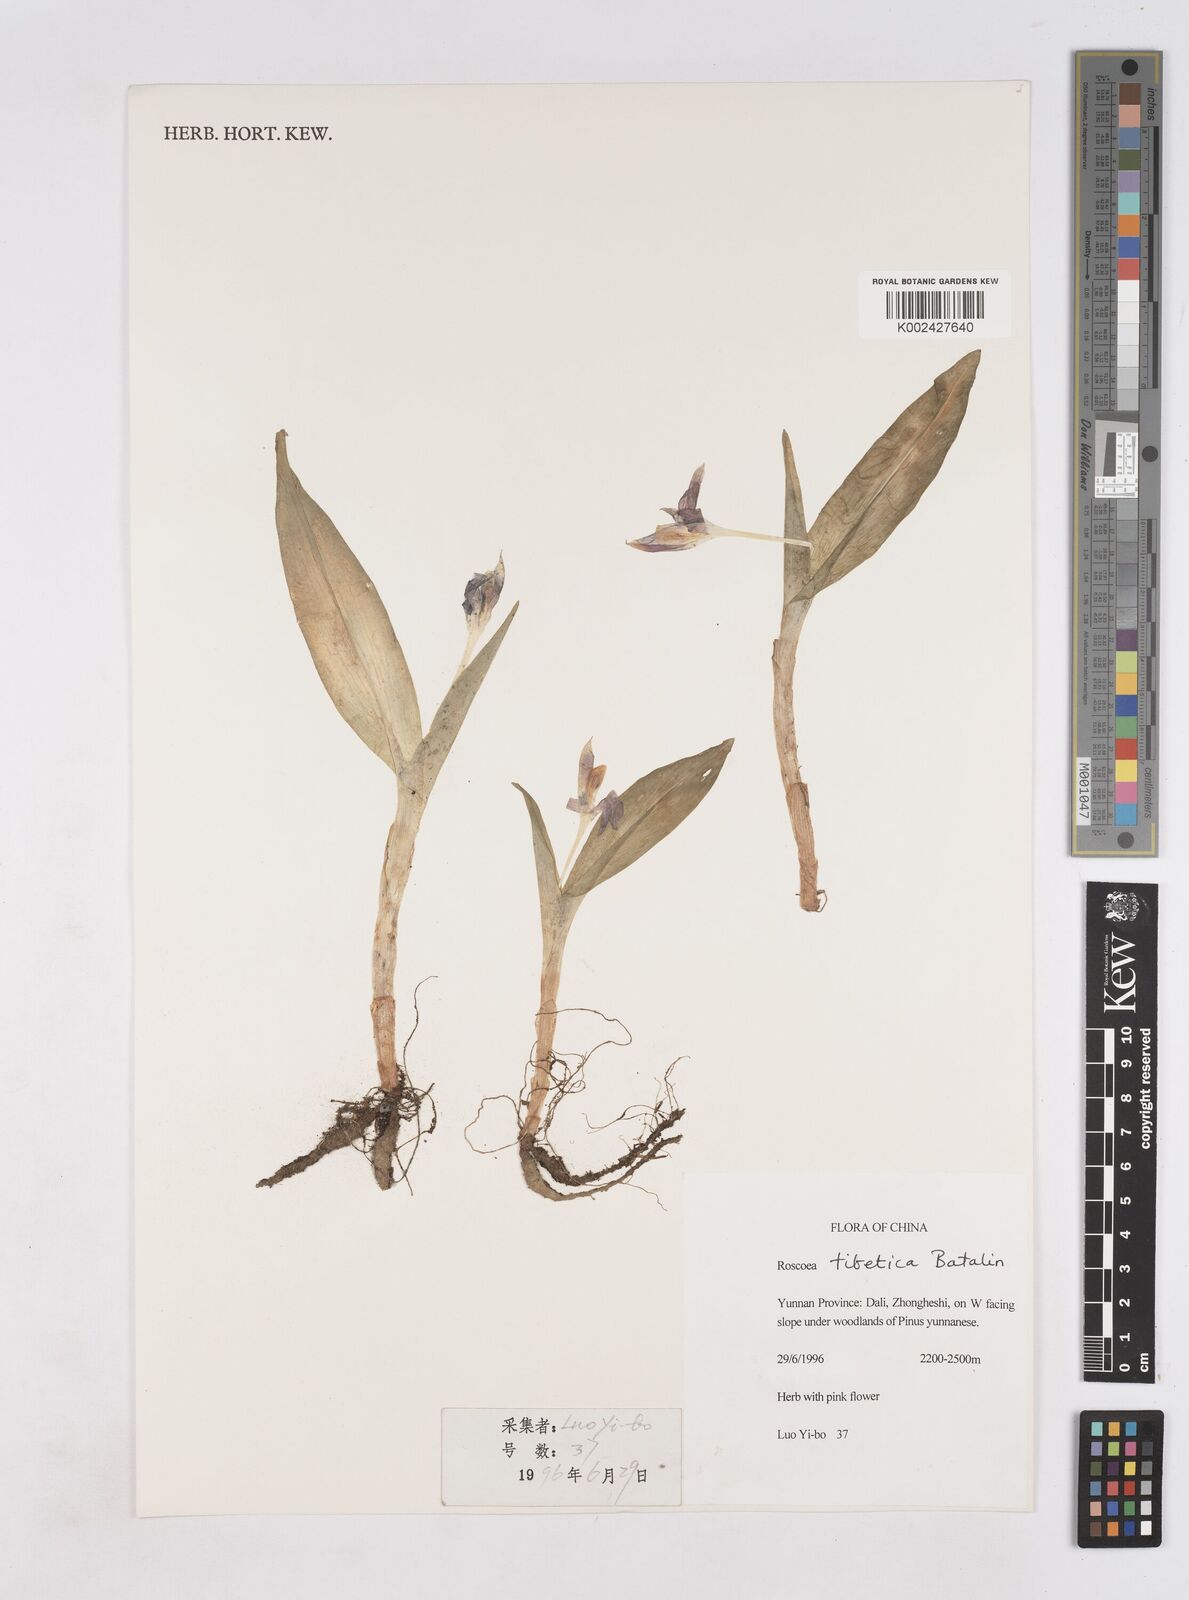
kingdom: Plantae
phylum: Tracheophyta
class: Liliopsida
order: Zingiberales
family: Zingiberaceae
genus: Roscoea
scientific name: Roscoea tibetica
